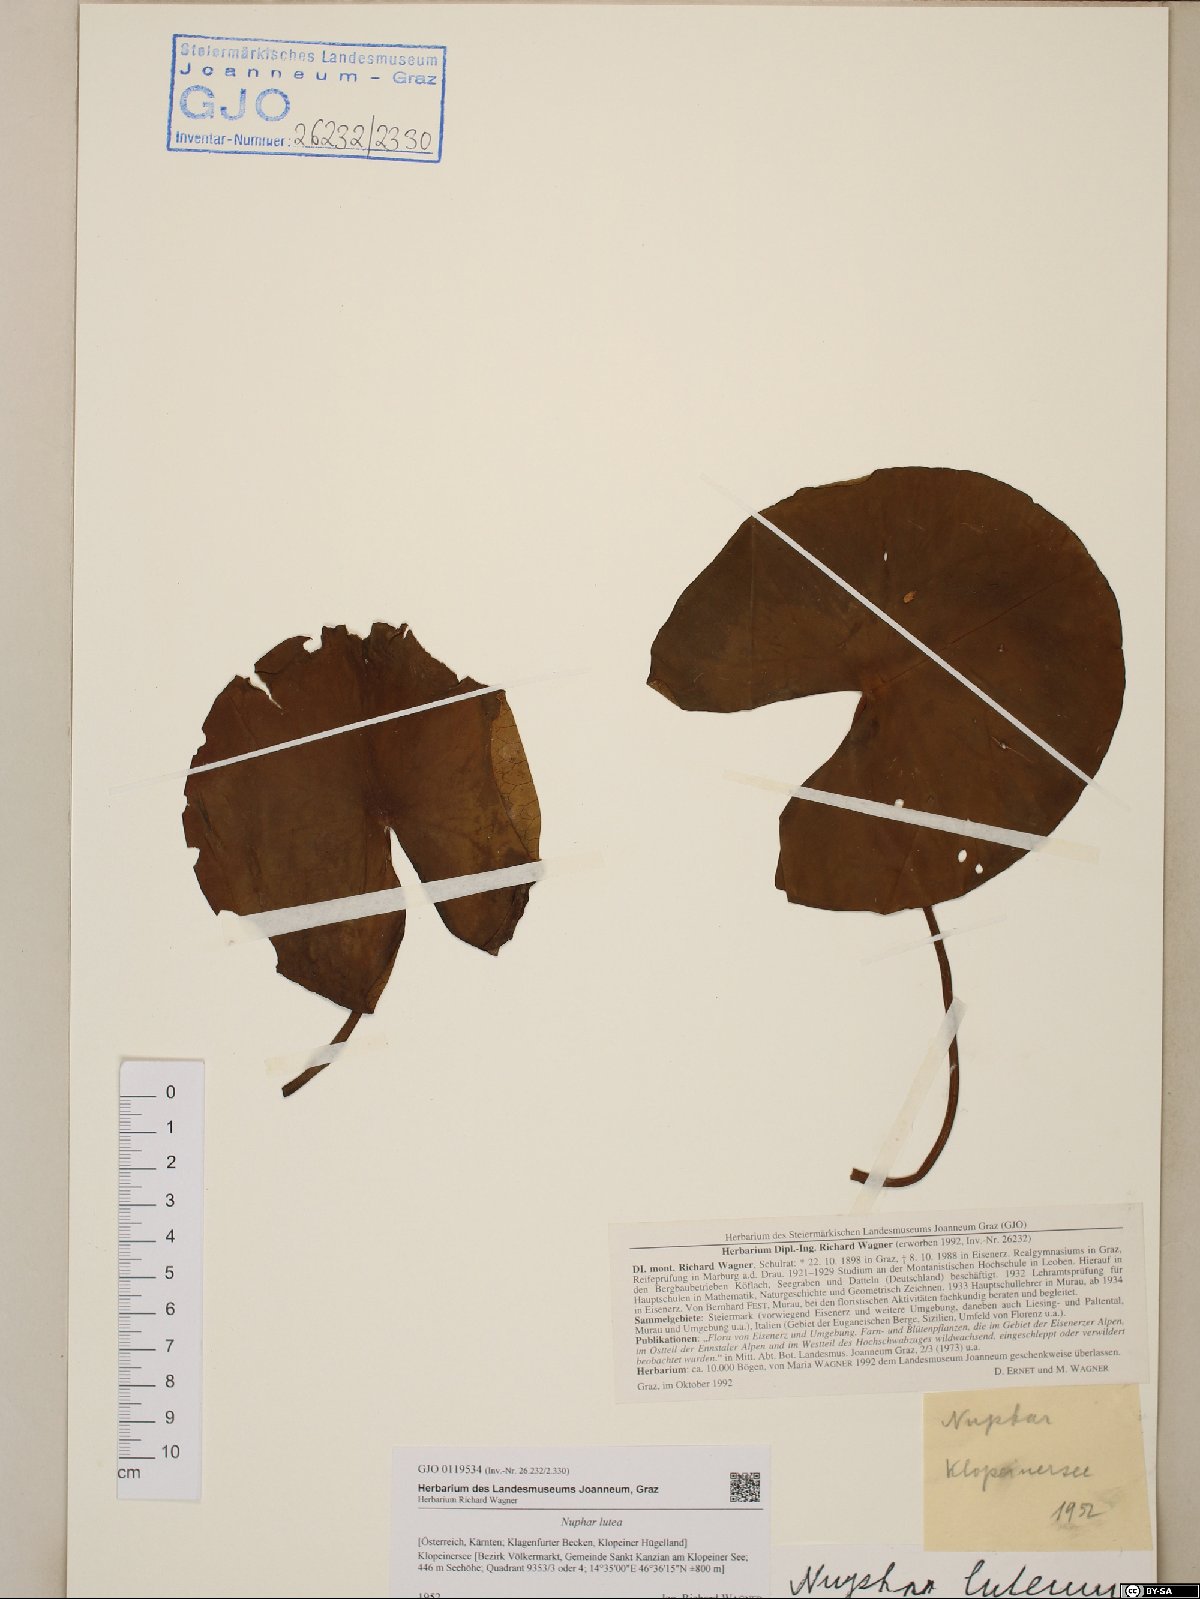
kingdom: Plantae
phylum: Tracheophyta
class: Magnoliopsida
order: Nymphaeales
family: Nymphaeaceae
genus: Nuphar
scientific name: Nuphar lutea
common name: Yellow water-lily
